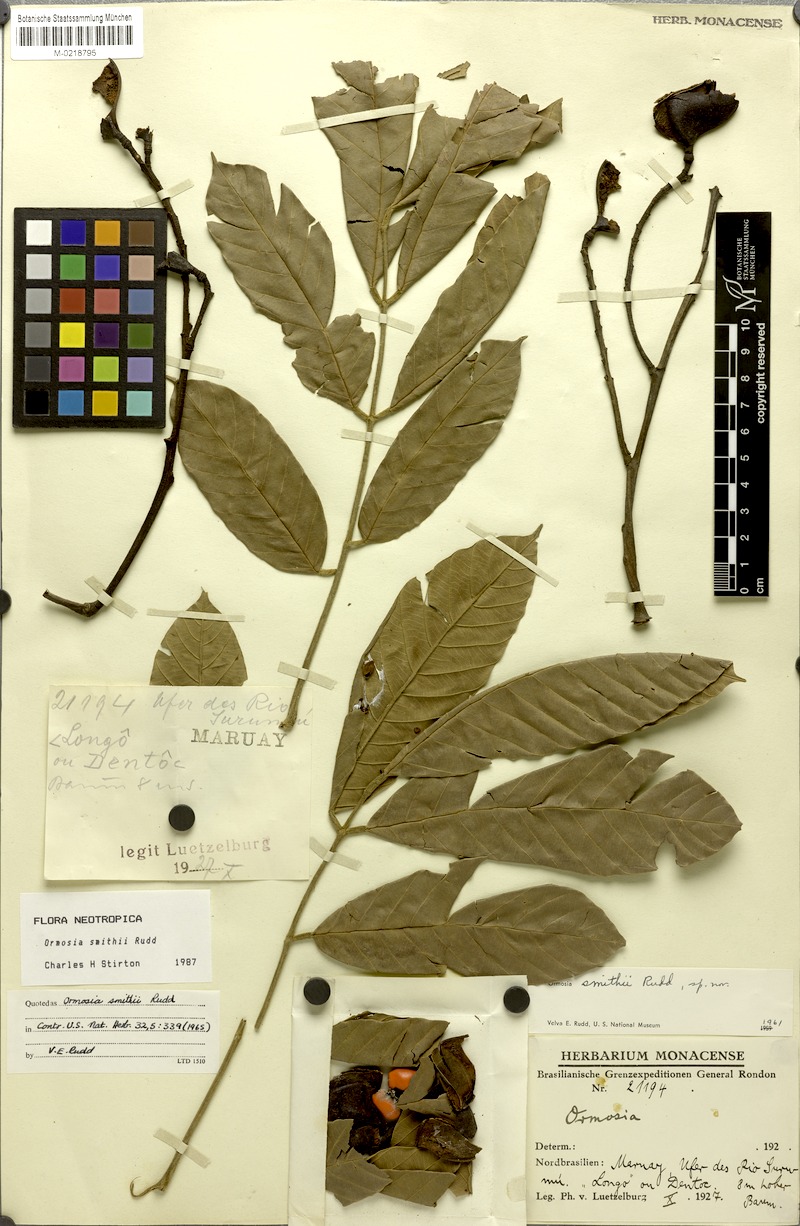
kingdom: Plantae
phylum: Tracheophyta
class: Magnoliopsida
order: Fabales
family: Fabaceae
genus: Ormosia
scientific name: Ormosia smithii
